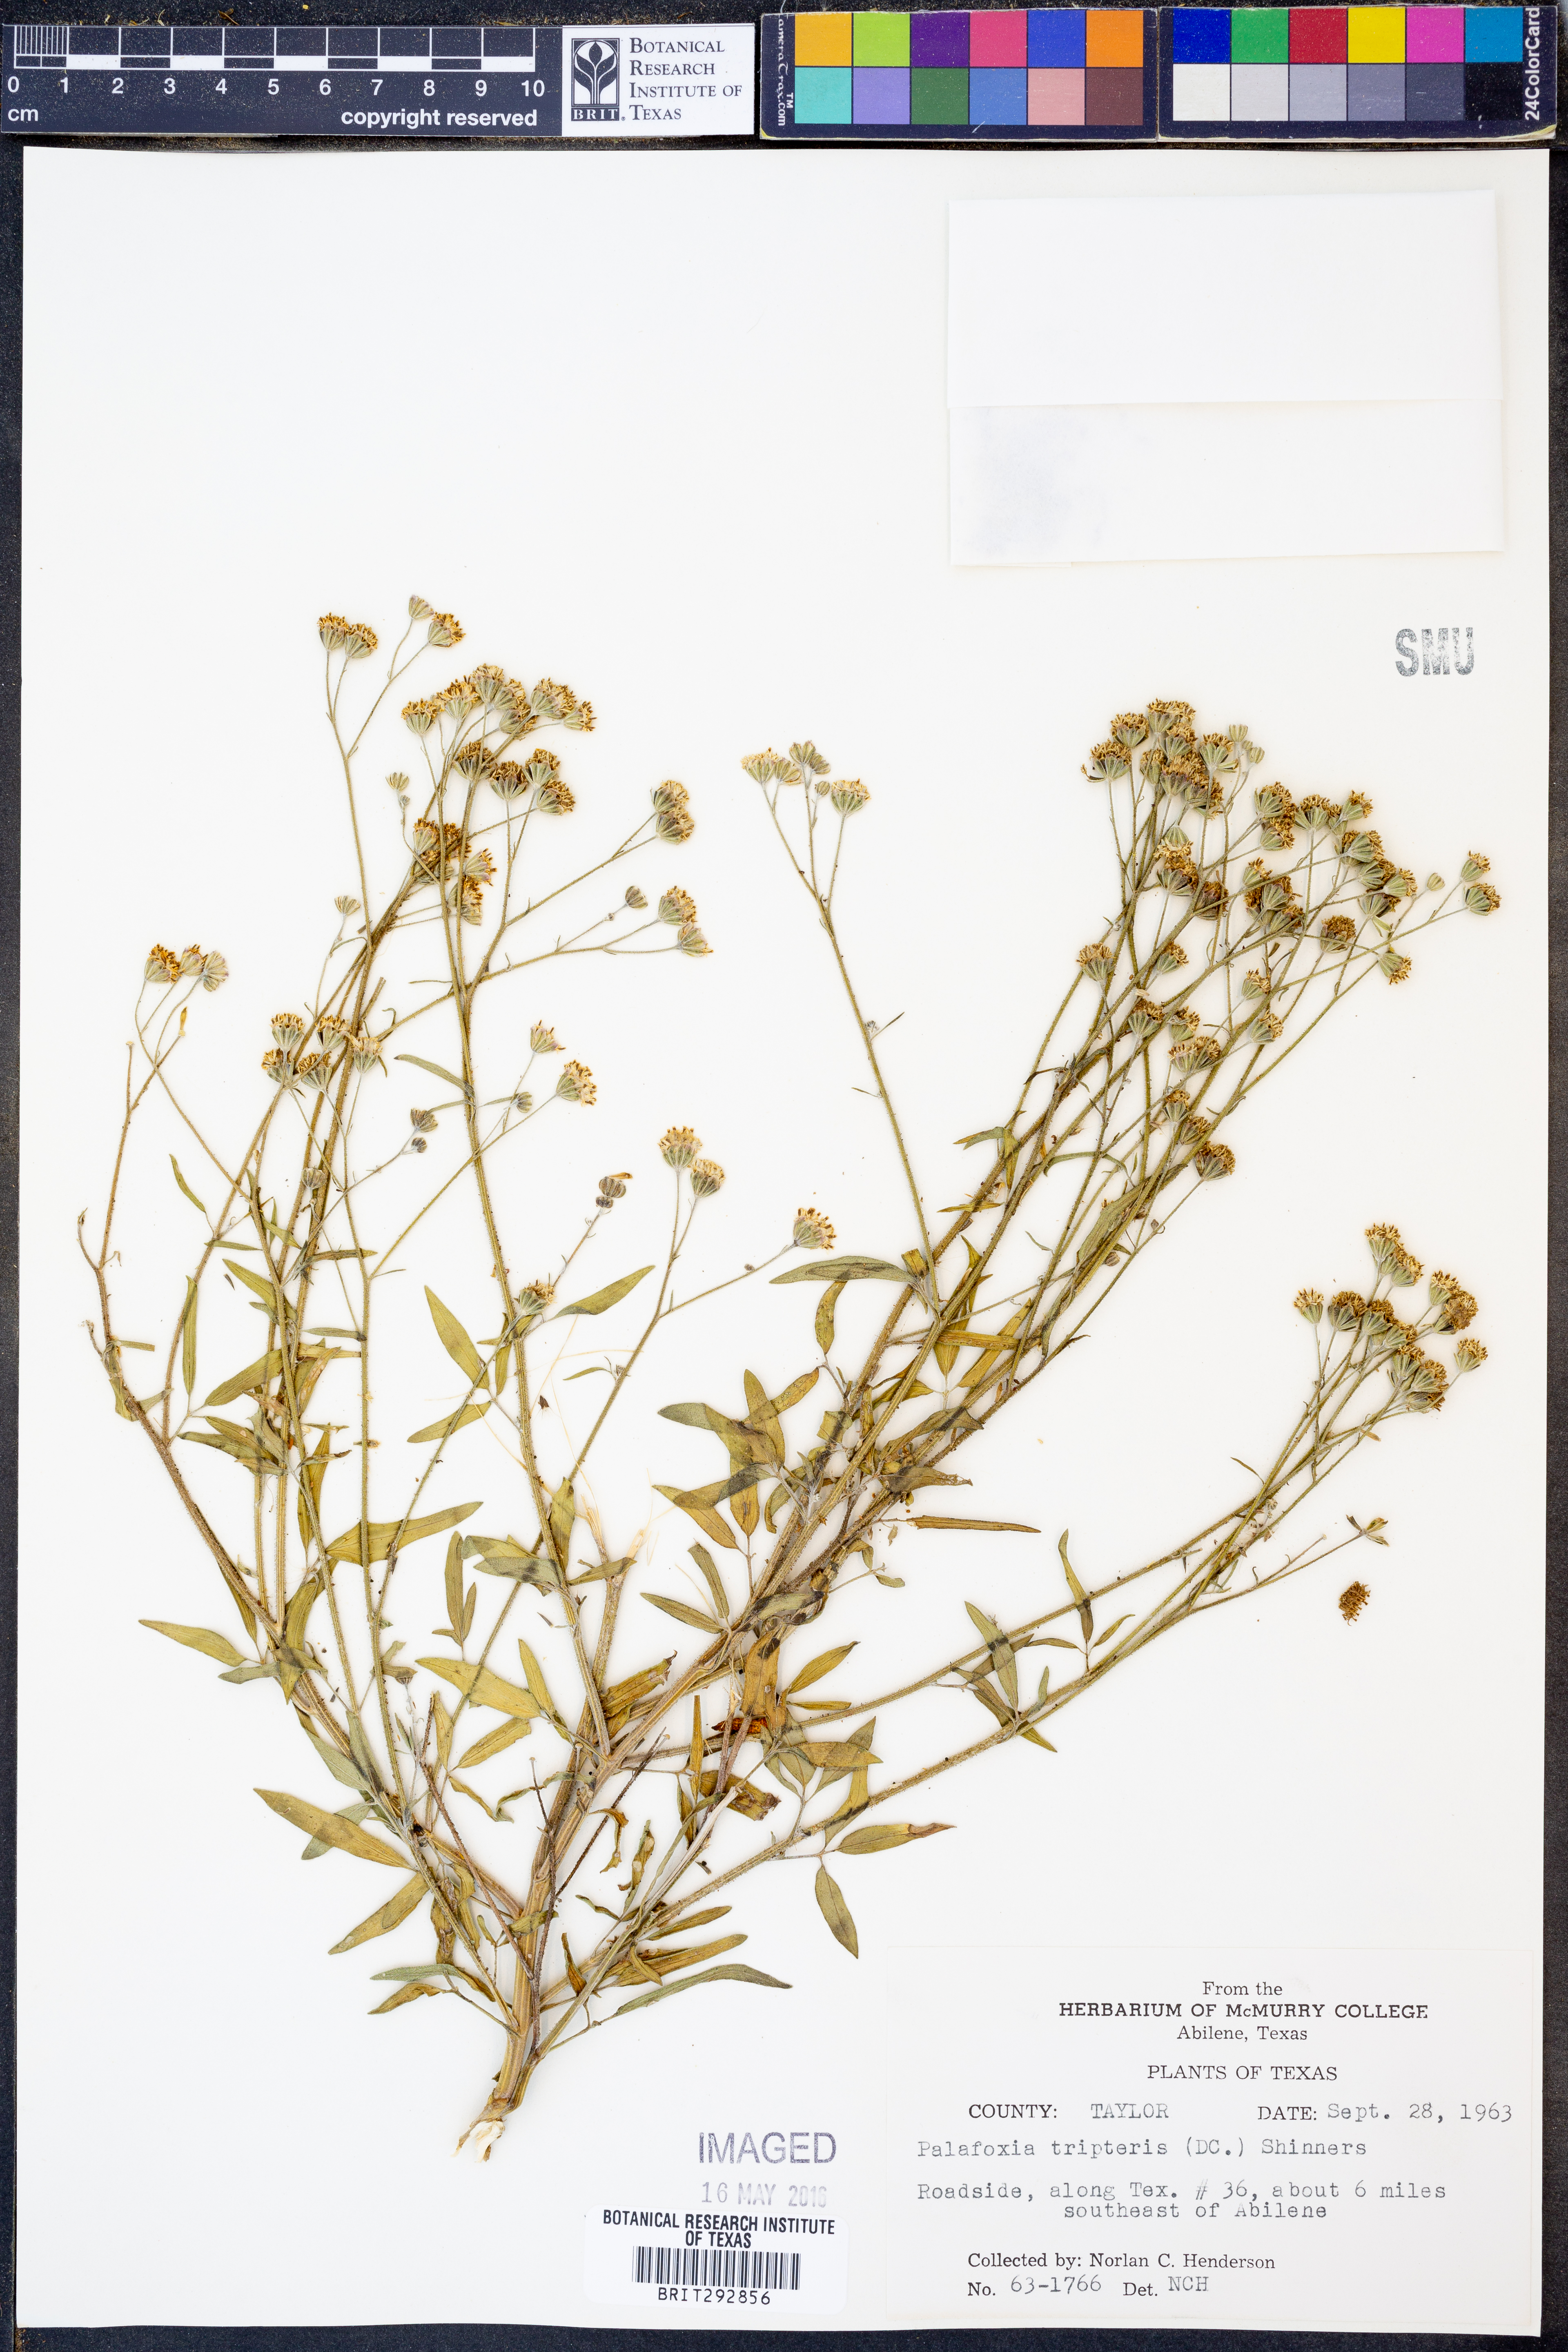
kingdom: Plantae
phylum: Tracheophyta
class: Magnoliopsida
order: Asterales
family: Asteraceae
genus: Florestina
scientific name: Florestina tripteris
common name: Sticky florestina
